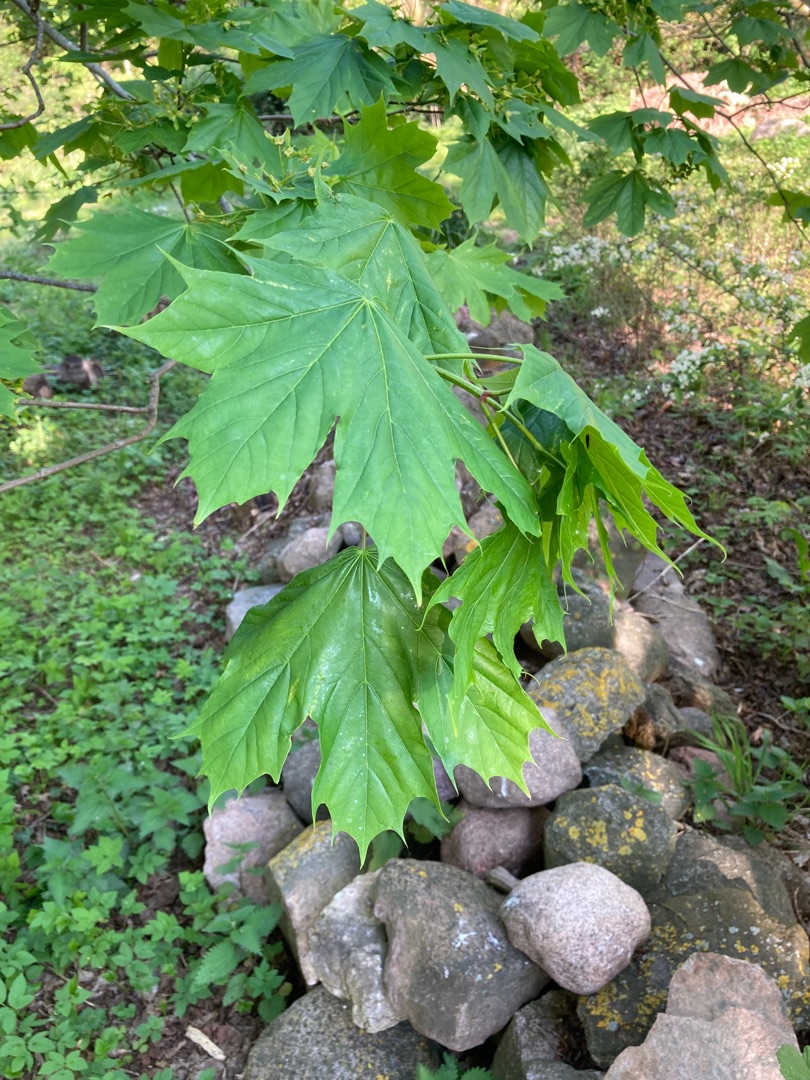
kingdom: Plantae
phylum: Tracheophyta
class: Magnoliopsida
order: Sapindales
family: Sapindaceae
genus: Acer
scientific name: Acer platanoides
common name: Spids-løn
